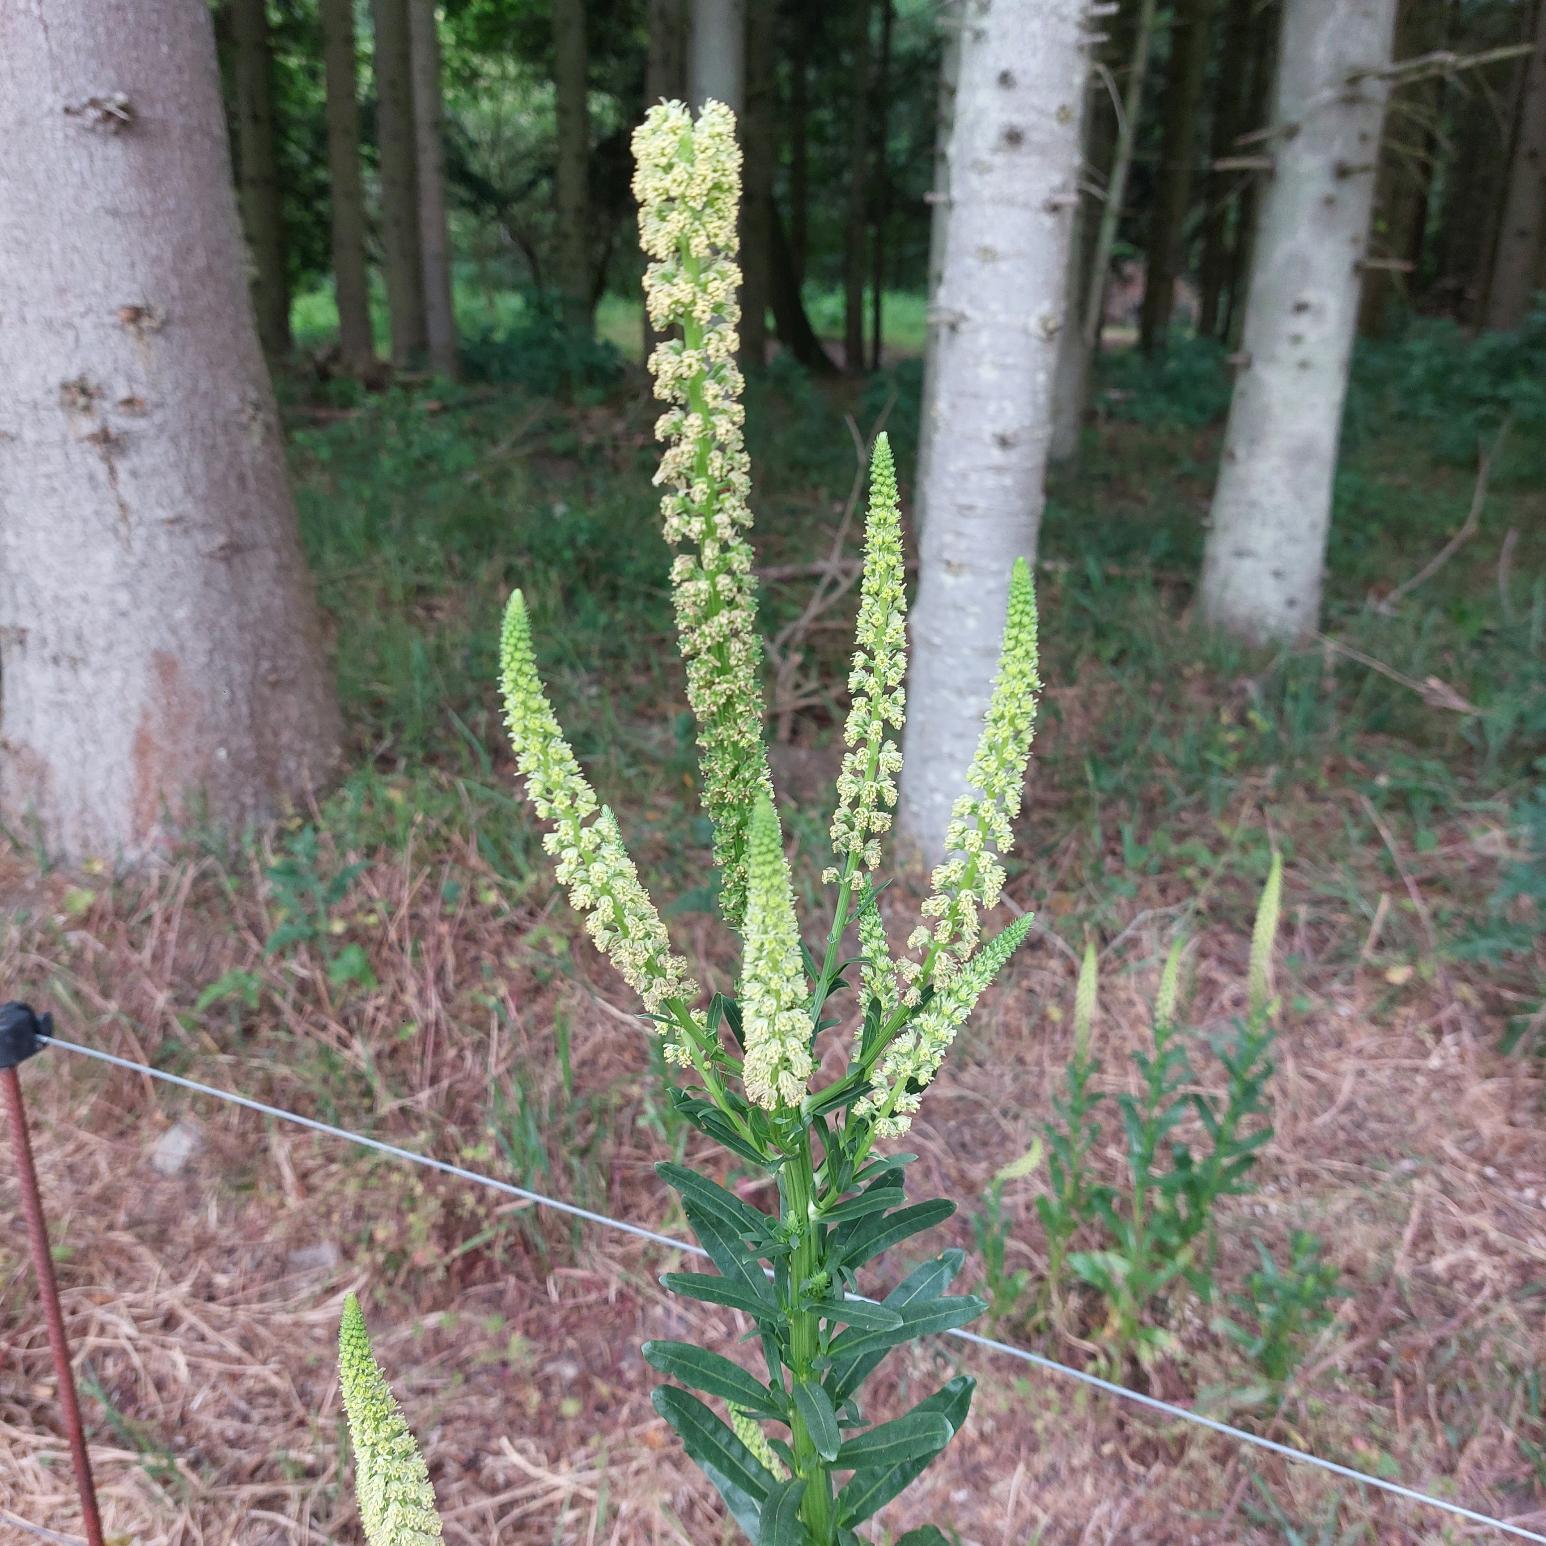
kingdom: Plantae
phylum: Tracheophyta
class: Magnoliopsida
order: Brassicales
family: Resedaceae
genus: Reseda
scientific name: Reseda luteola
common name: Farve-reseda
